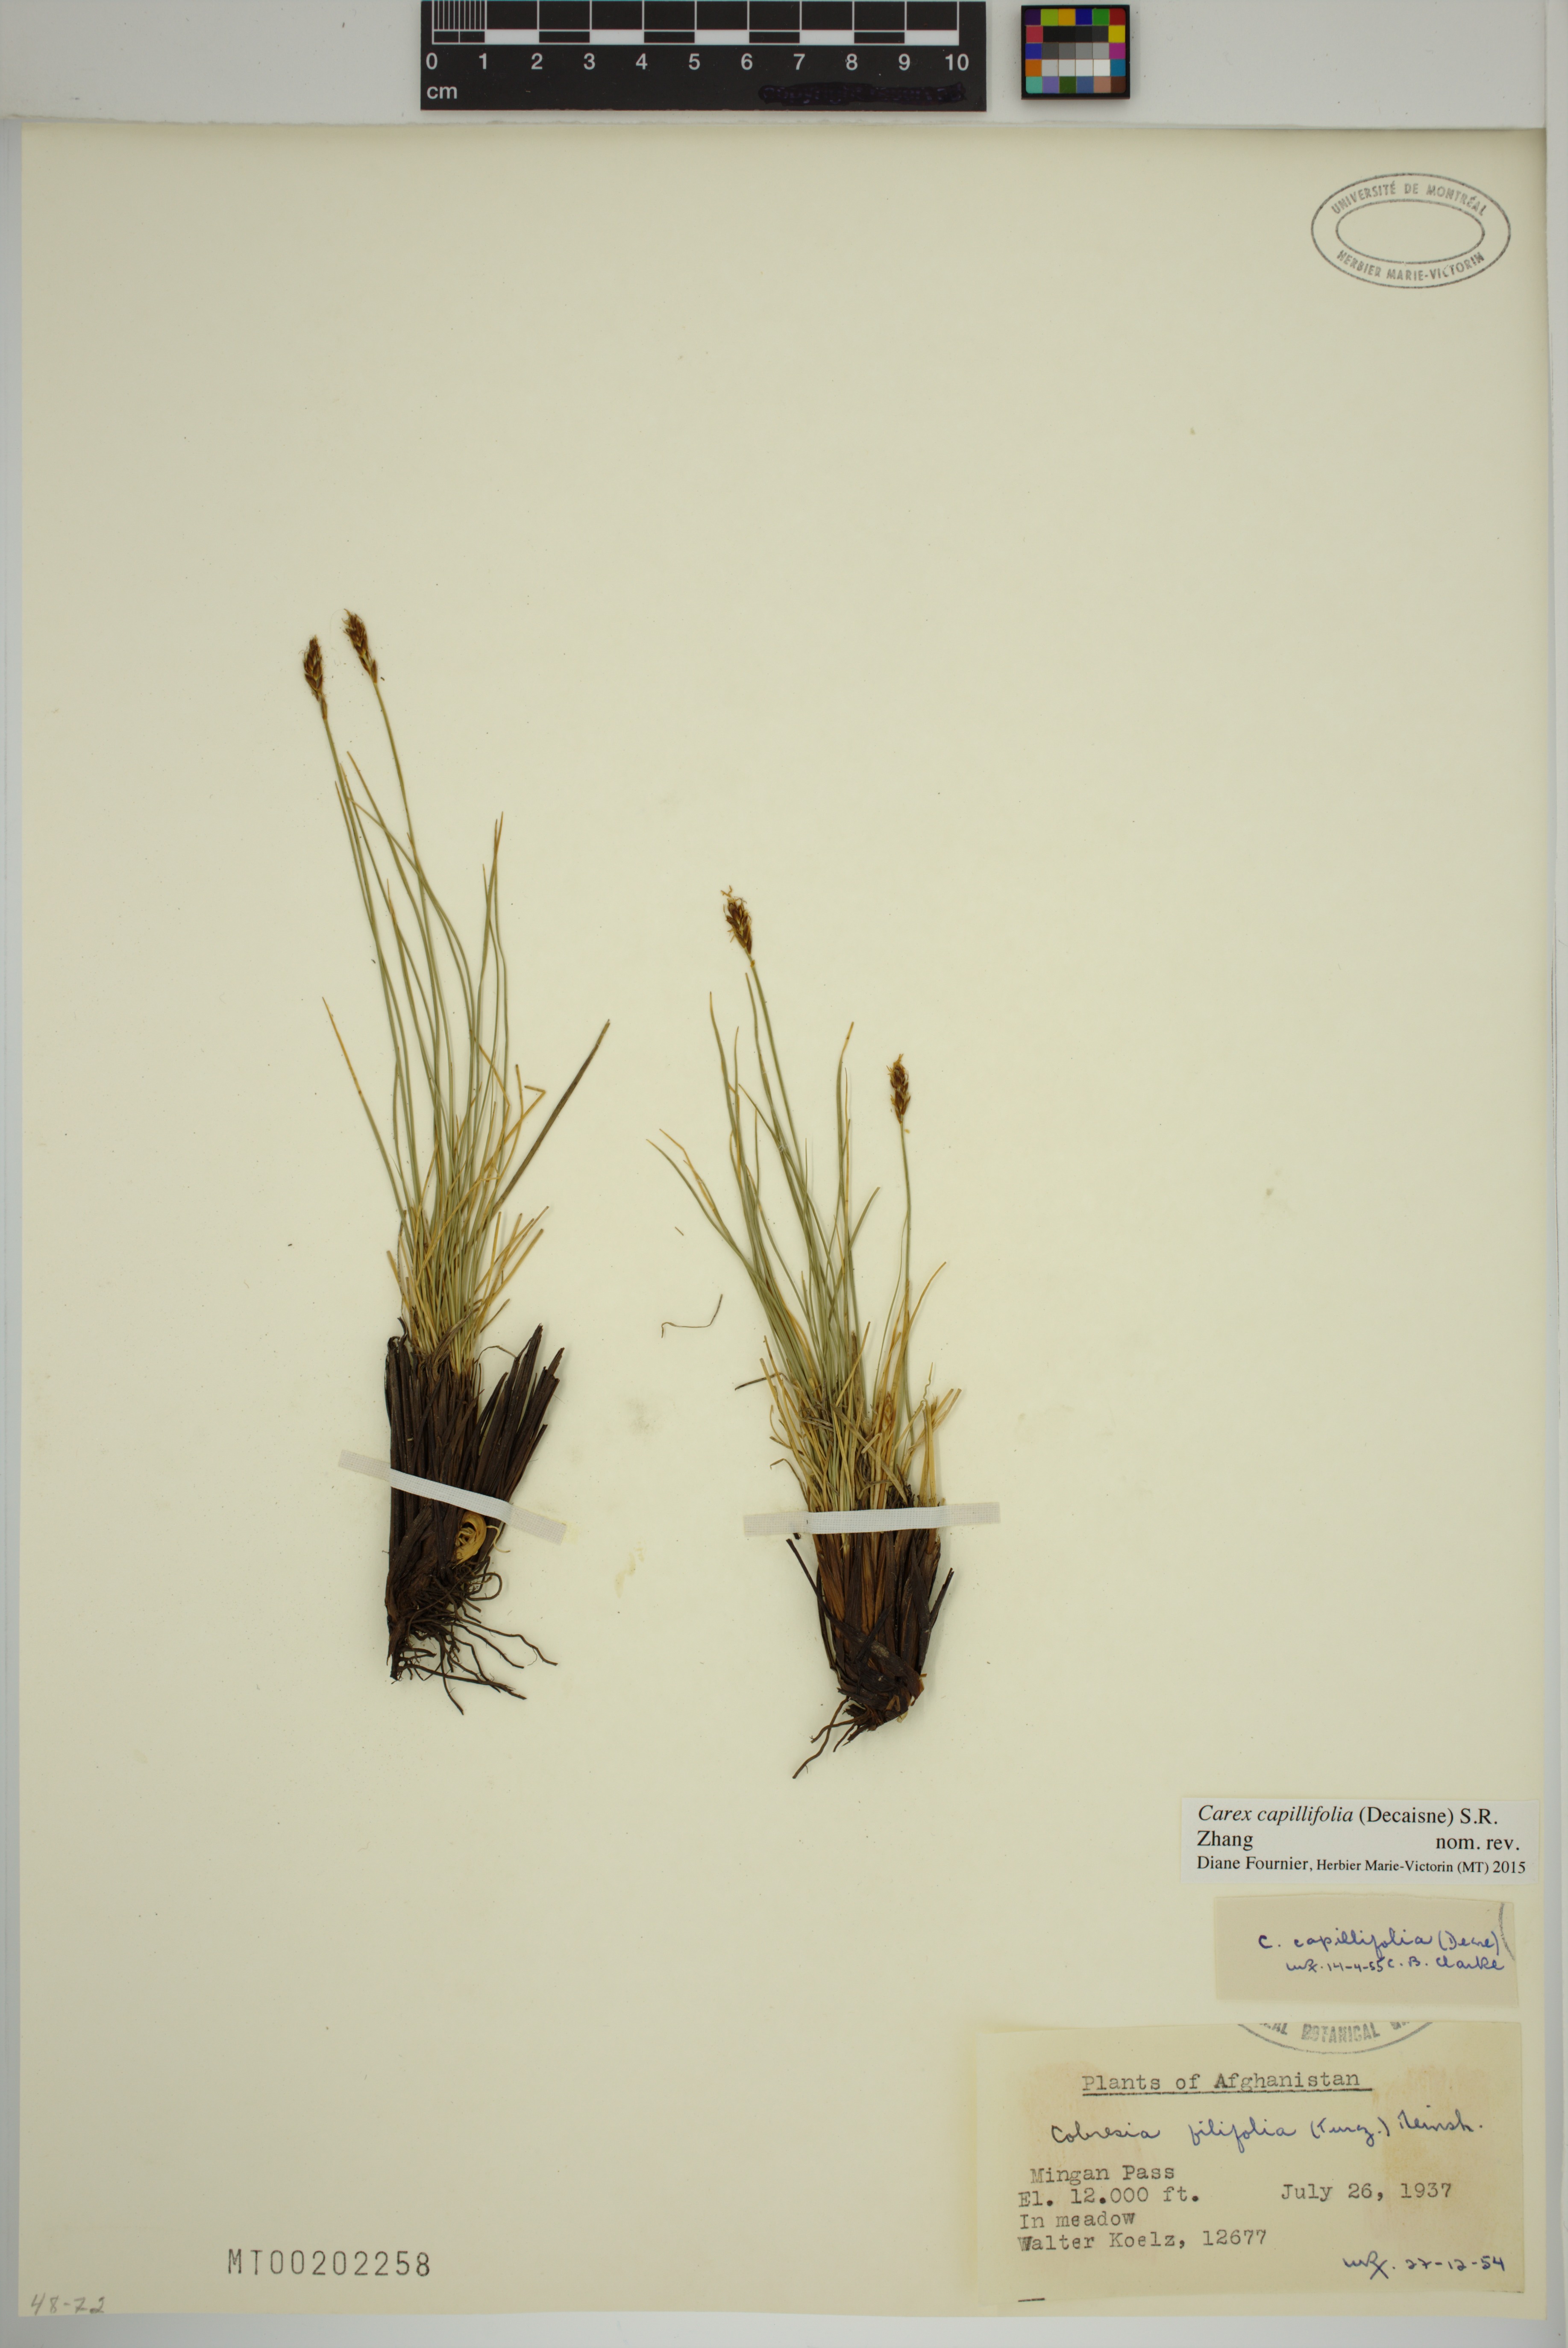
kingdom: Plantae
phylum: Tracheophyta
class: Liliopsida
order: Poales
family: Cyperaceae
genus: Carex
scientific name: Carex capillifolia
